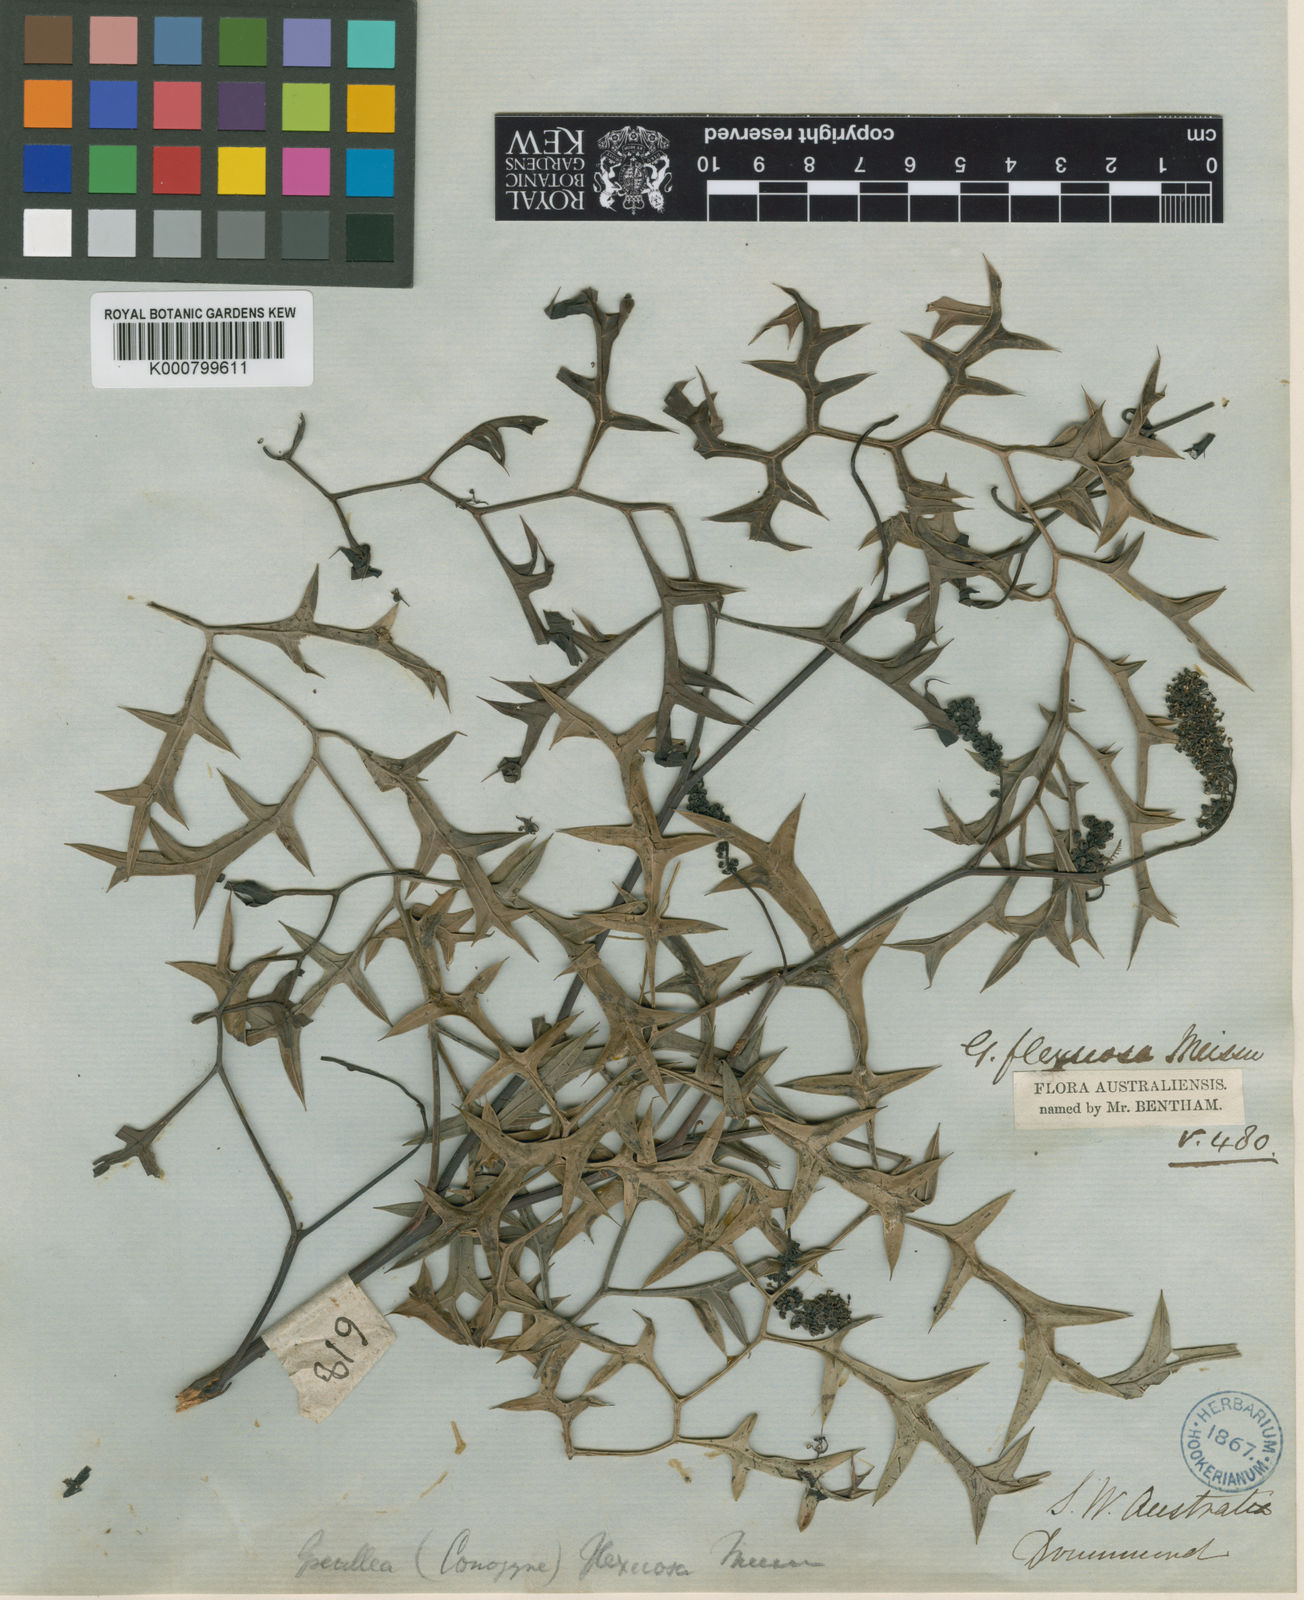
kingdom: Plantae
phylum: Tracheophyta
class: Magnoliopsida
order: Proteales
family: Proteaceae
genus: Grevillea
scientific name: Grevillea synaphea
